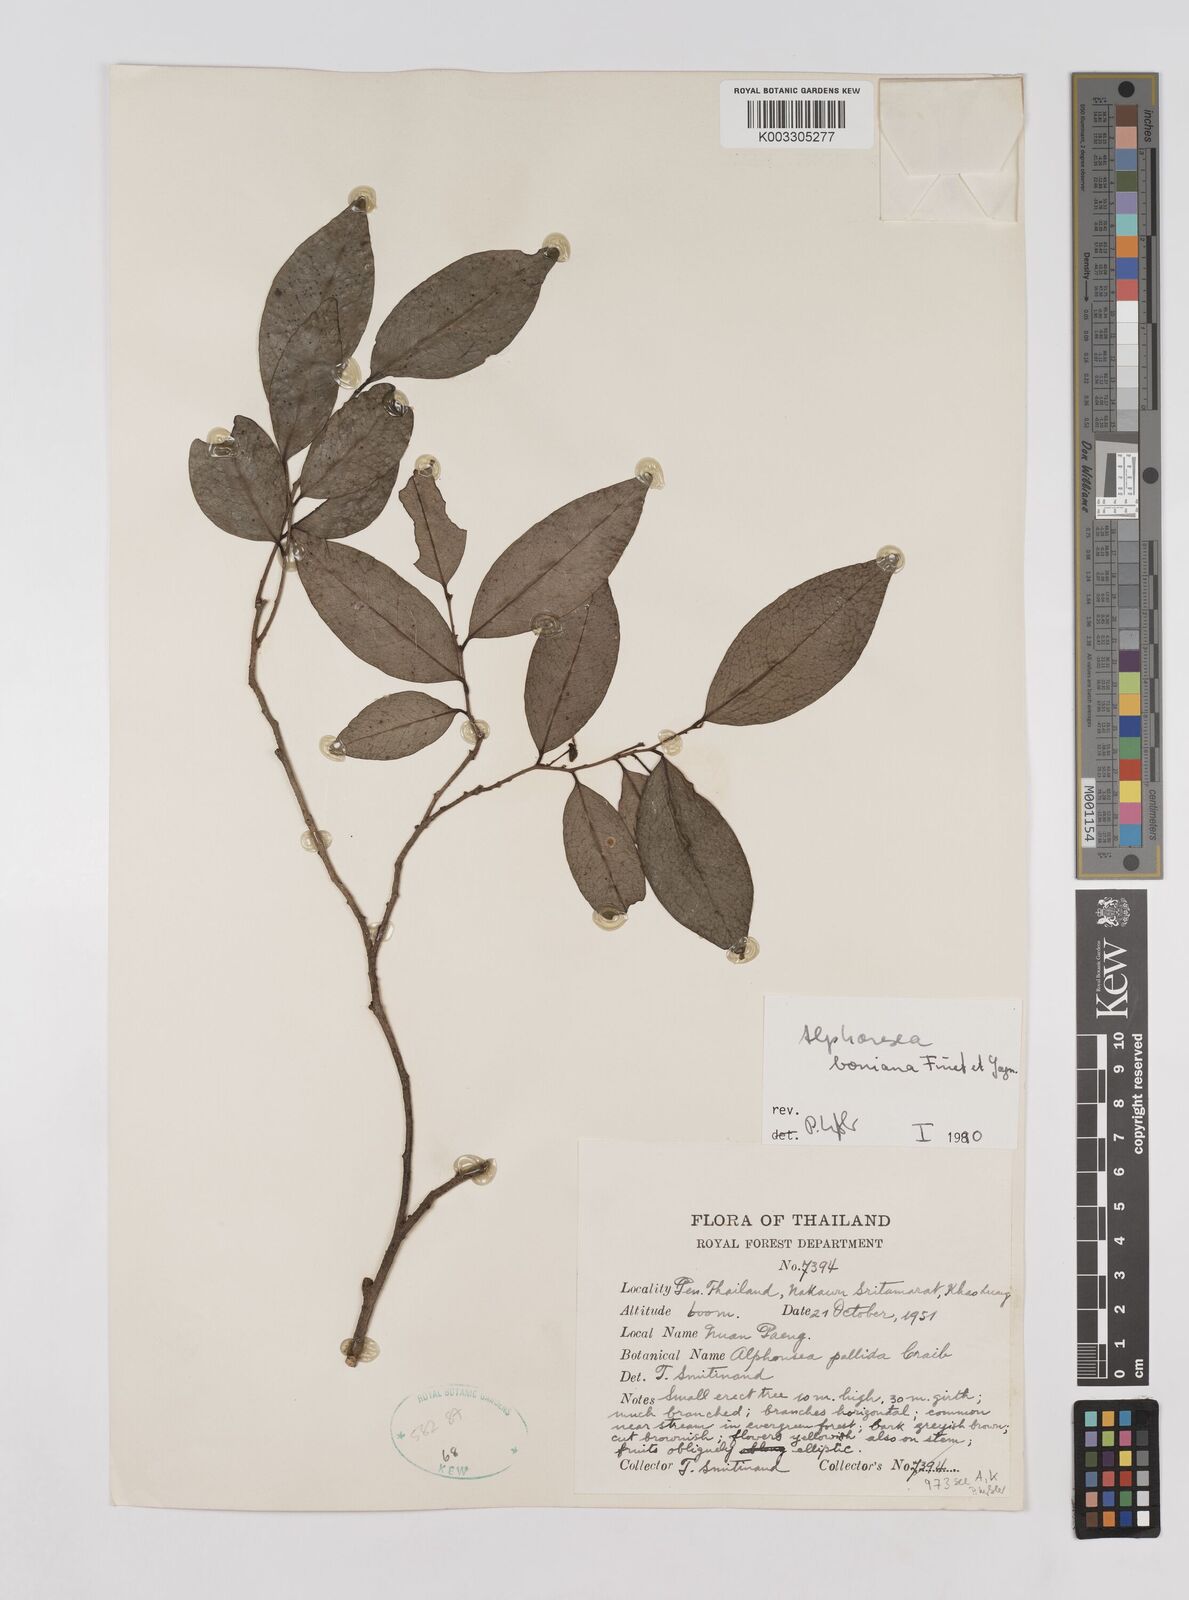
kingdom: Plantae
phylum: Tracheophyta
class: Magnoliopsida
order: Magnoliales
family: Annonaceae
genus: Alphonsea
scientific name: Alphonsea boniana
